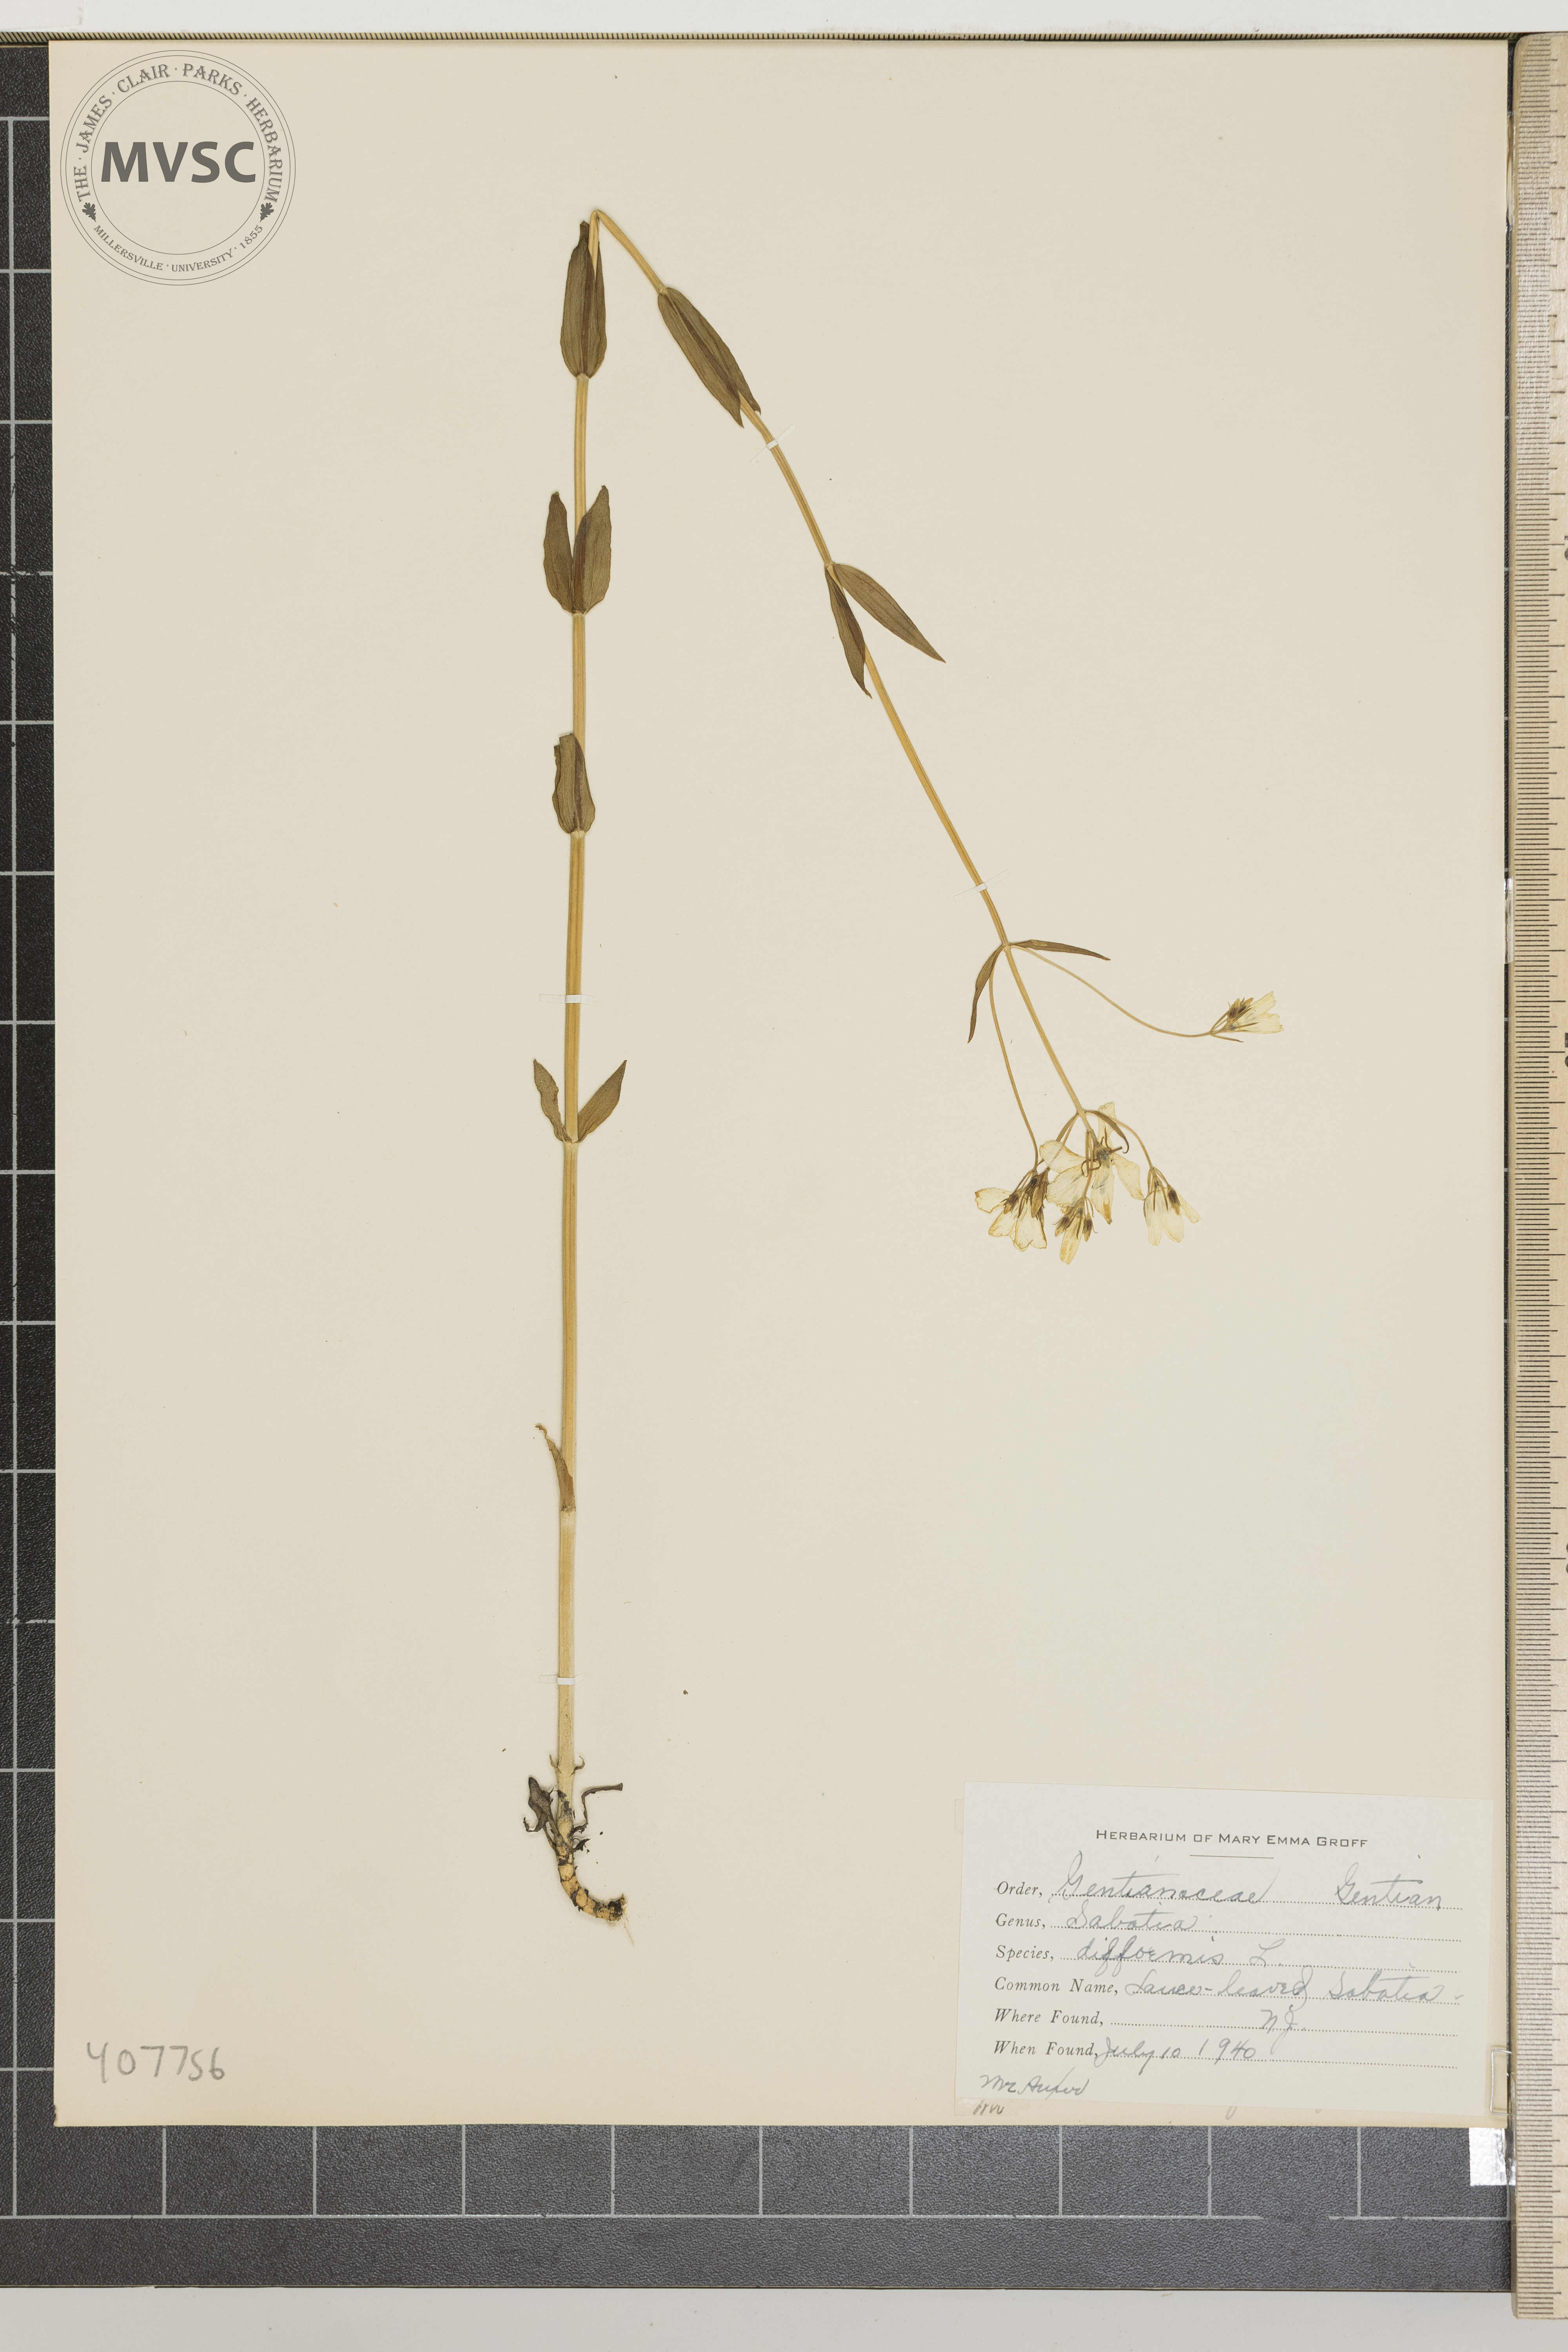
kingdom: Plantae
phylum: Tracheophyta
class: Magnoliopsida
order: Gentianales
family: Gentianaceae
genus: Sabatia
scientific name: Sabatia difformis
